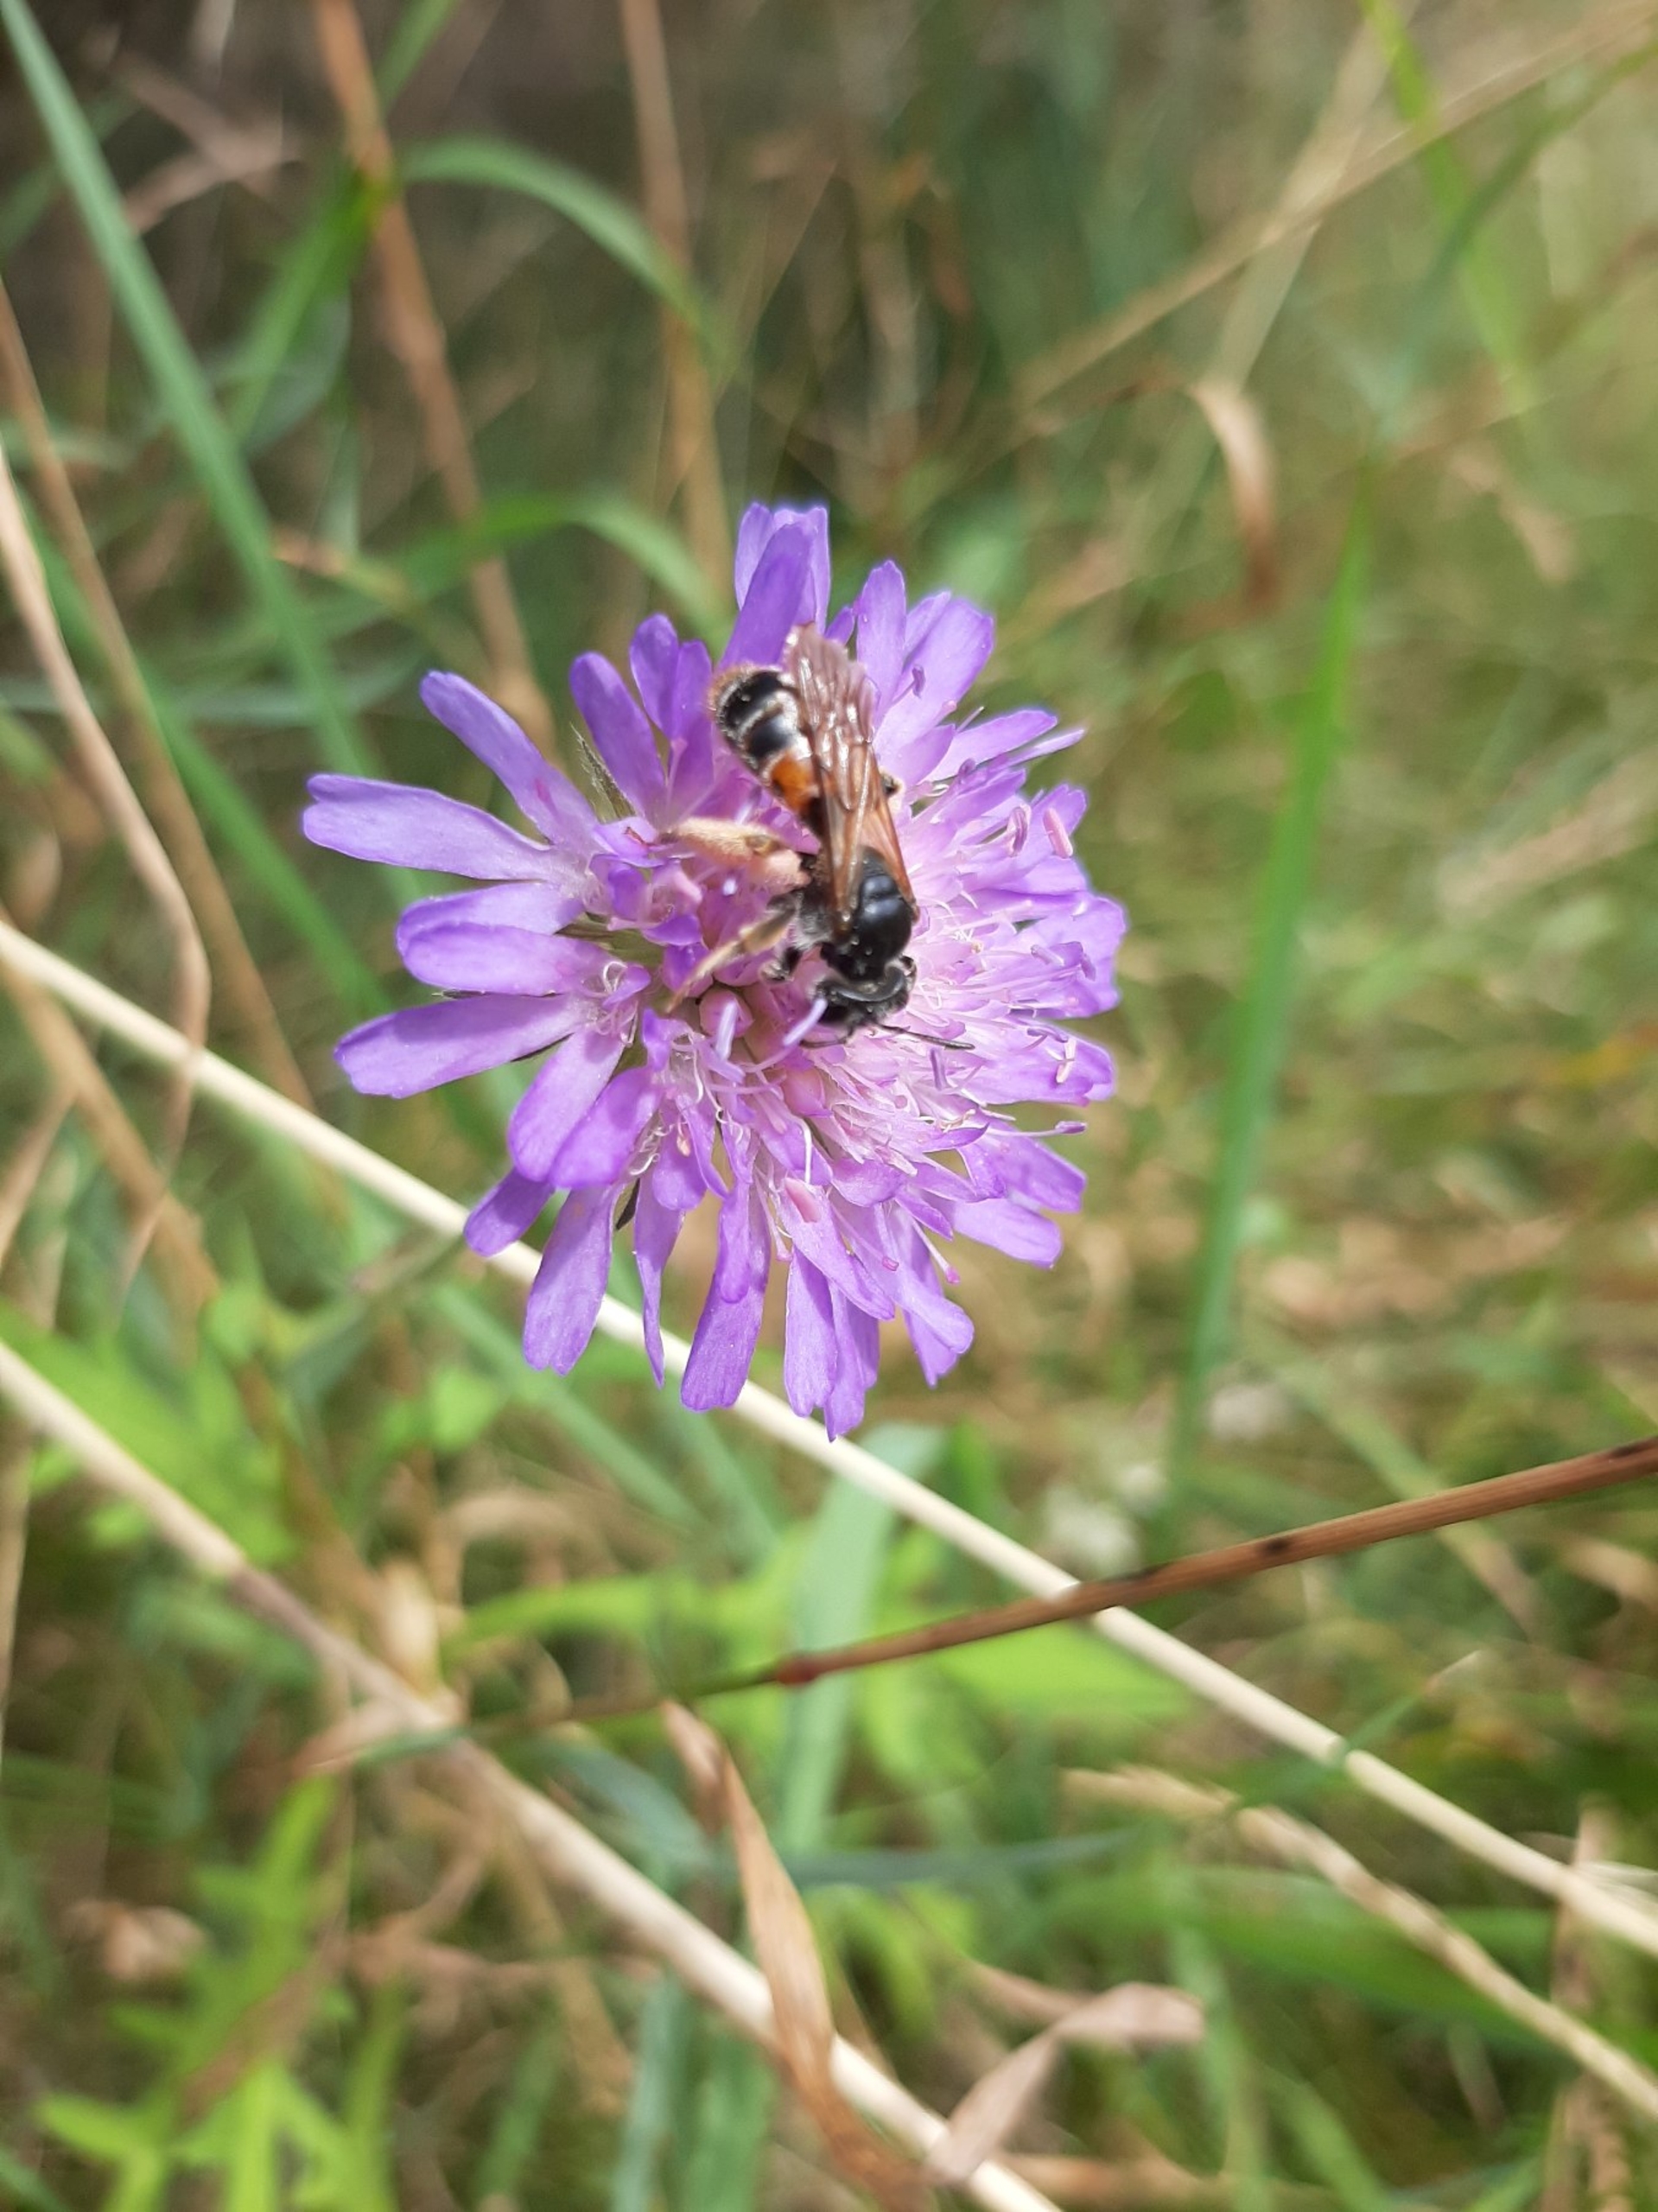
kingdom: Animalia
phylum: Arthropoda
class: Insecta
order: Hymenoptera
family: Andrenidae
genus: Andrena
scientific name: Andrena hattorfiana
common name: Blåhatjordbi
